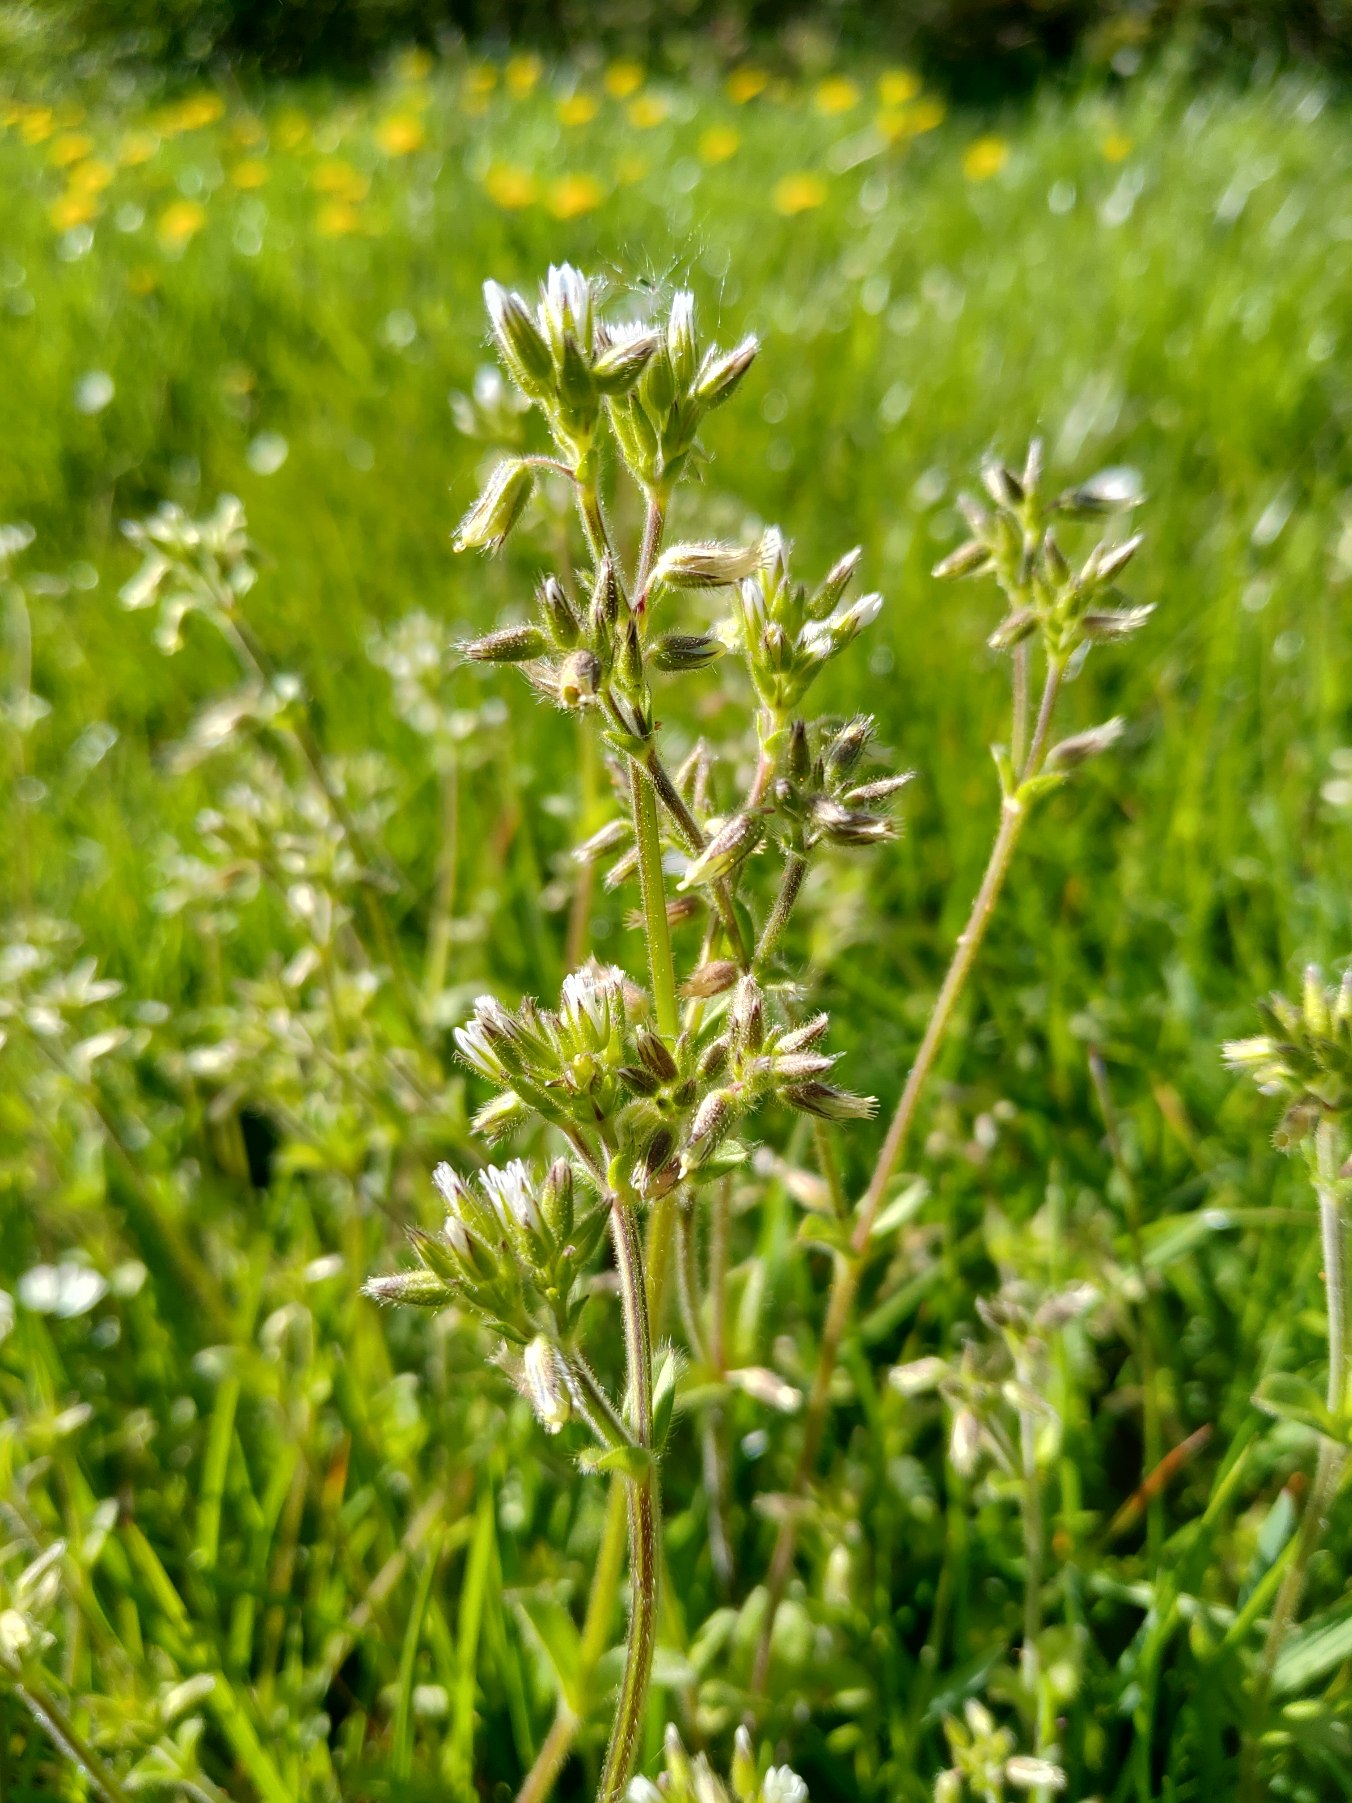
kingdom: Plantae
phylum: Tracheophyta
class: Magnoliopsida
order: Caryophyllales
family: Caryophyllaceae
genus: Cerastium
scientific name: Cerastium glomeratum
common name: Opret hønsetarm
